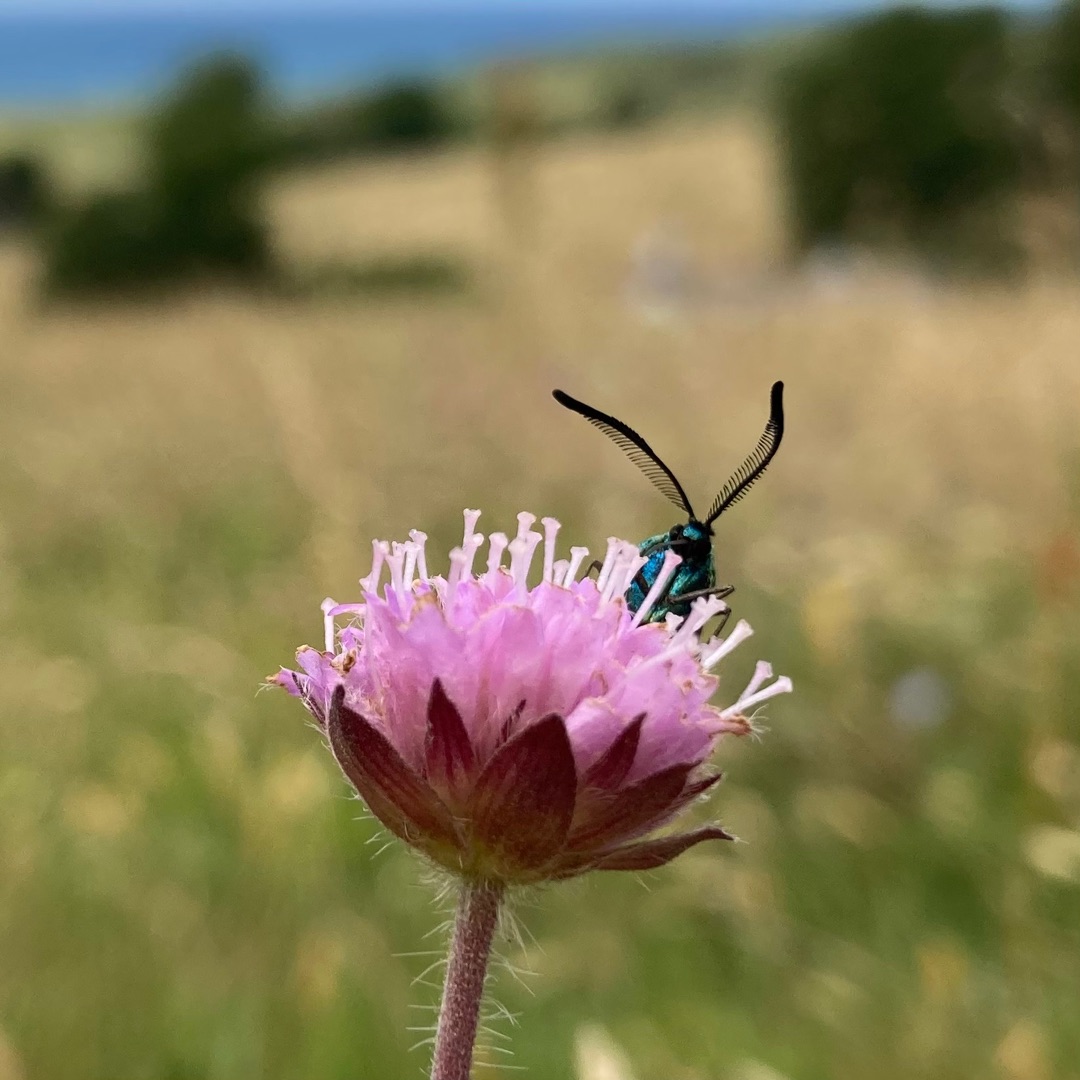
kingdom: Animalia
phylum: Arthropoda
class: Insecta
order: Lepidoptera
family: Zygaenidae
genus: Adscita
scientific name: Adscita statices
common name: Metalvinge
